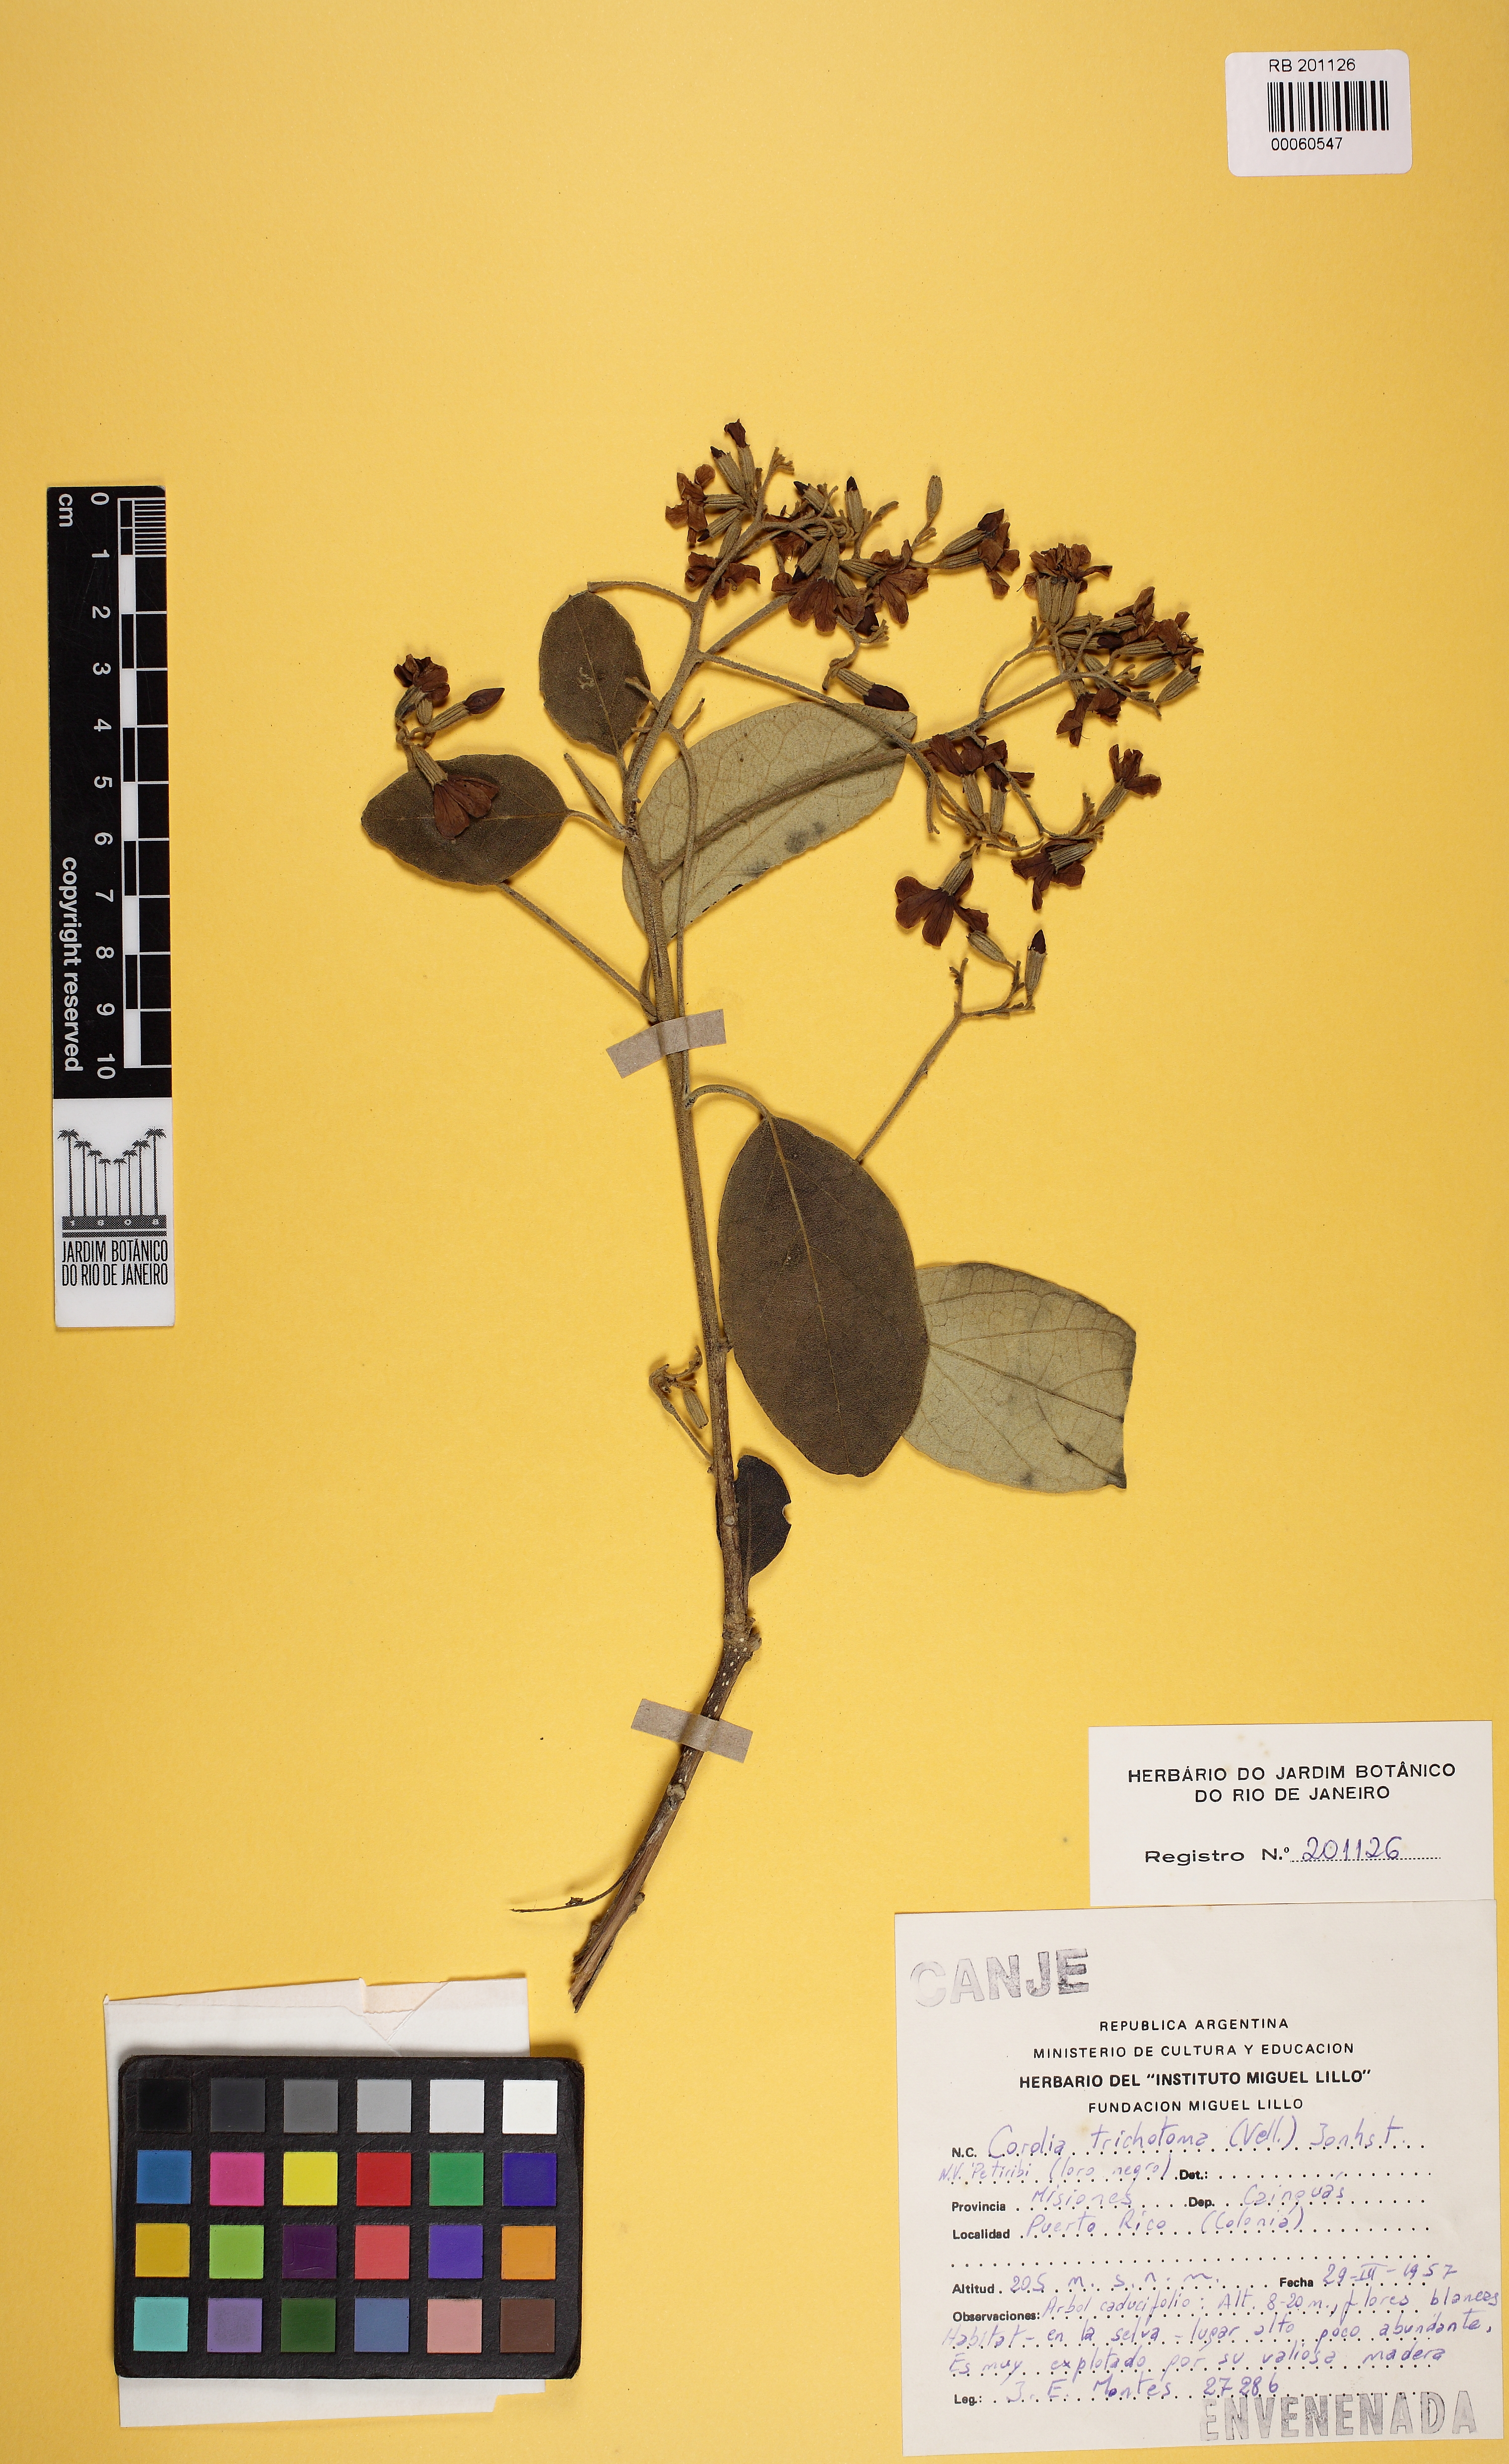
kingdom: Plantae
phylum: Tracheophyta
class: Magnoliopsida
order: Boraginales
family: Cordiaceae
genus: Cordia
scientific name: Cordia trichotoma
